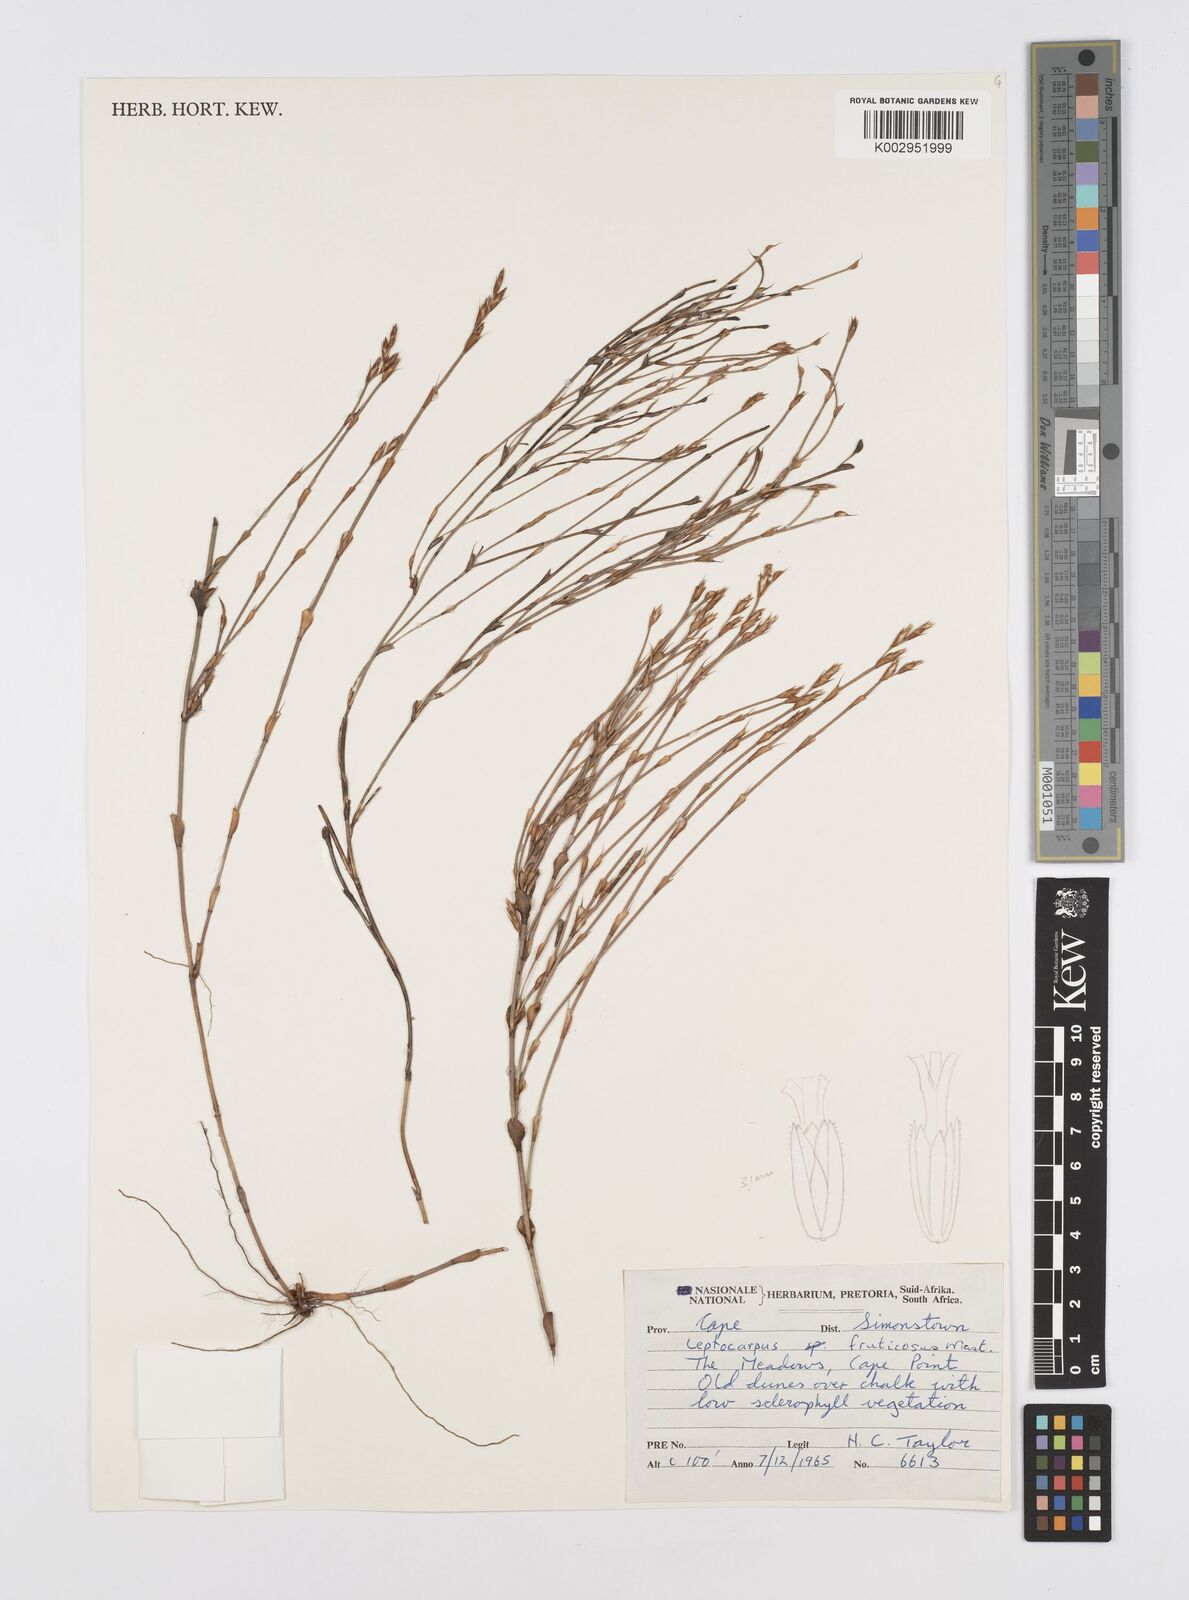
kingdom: Plantae
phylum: Tracheophyta
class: Liliopsida
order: Poales
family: Restionaceae
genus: Rhodocoma
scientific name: Rhodocoma fruticosa
